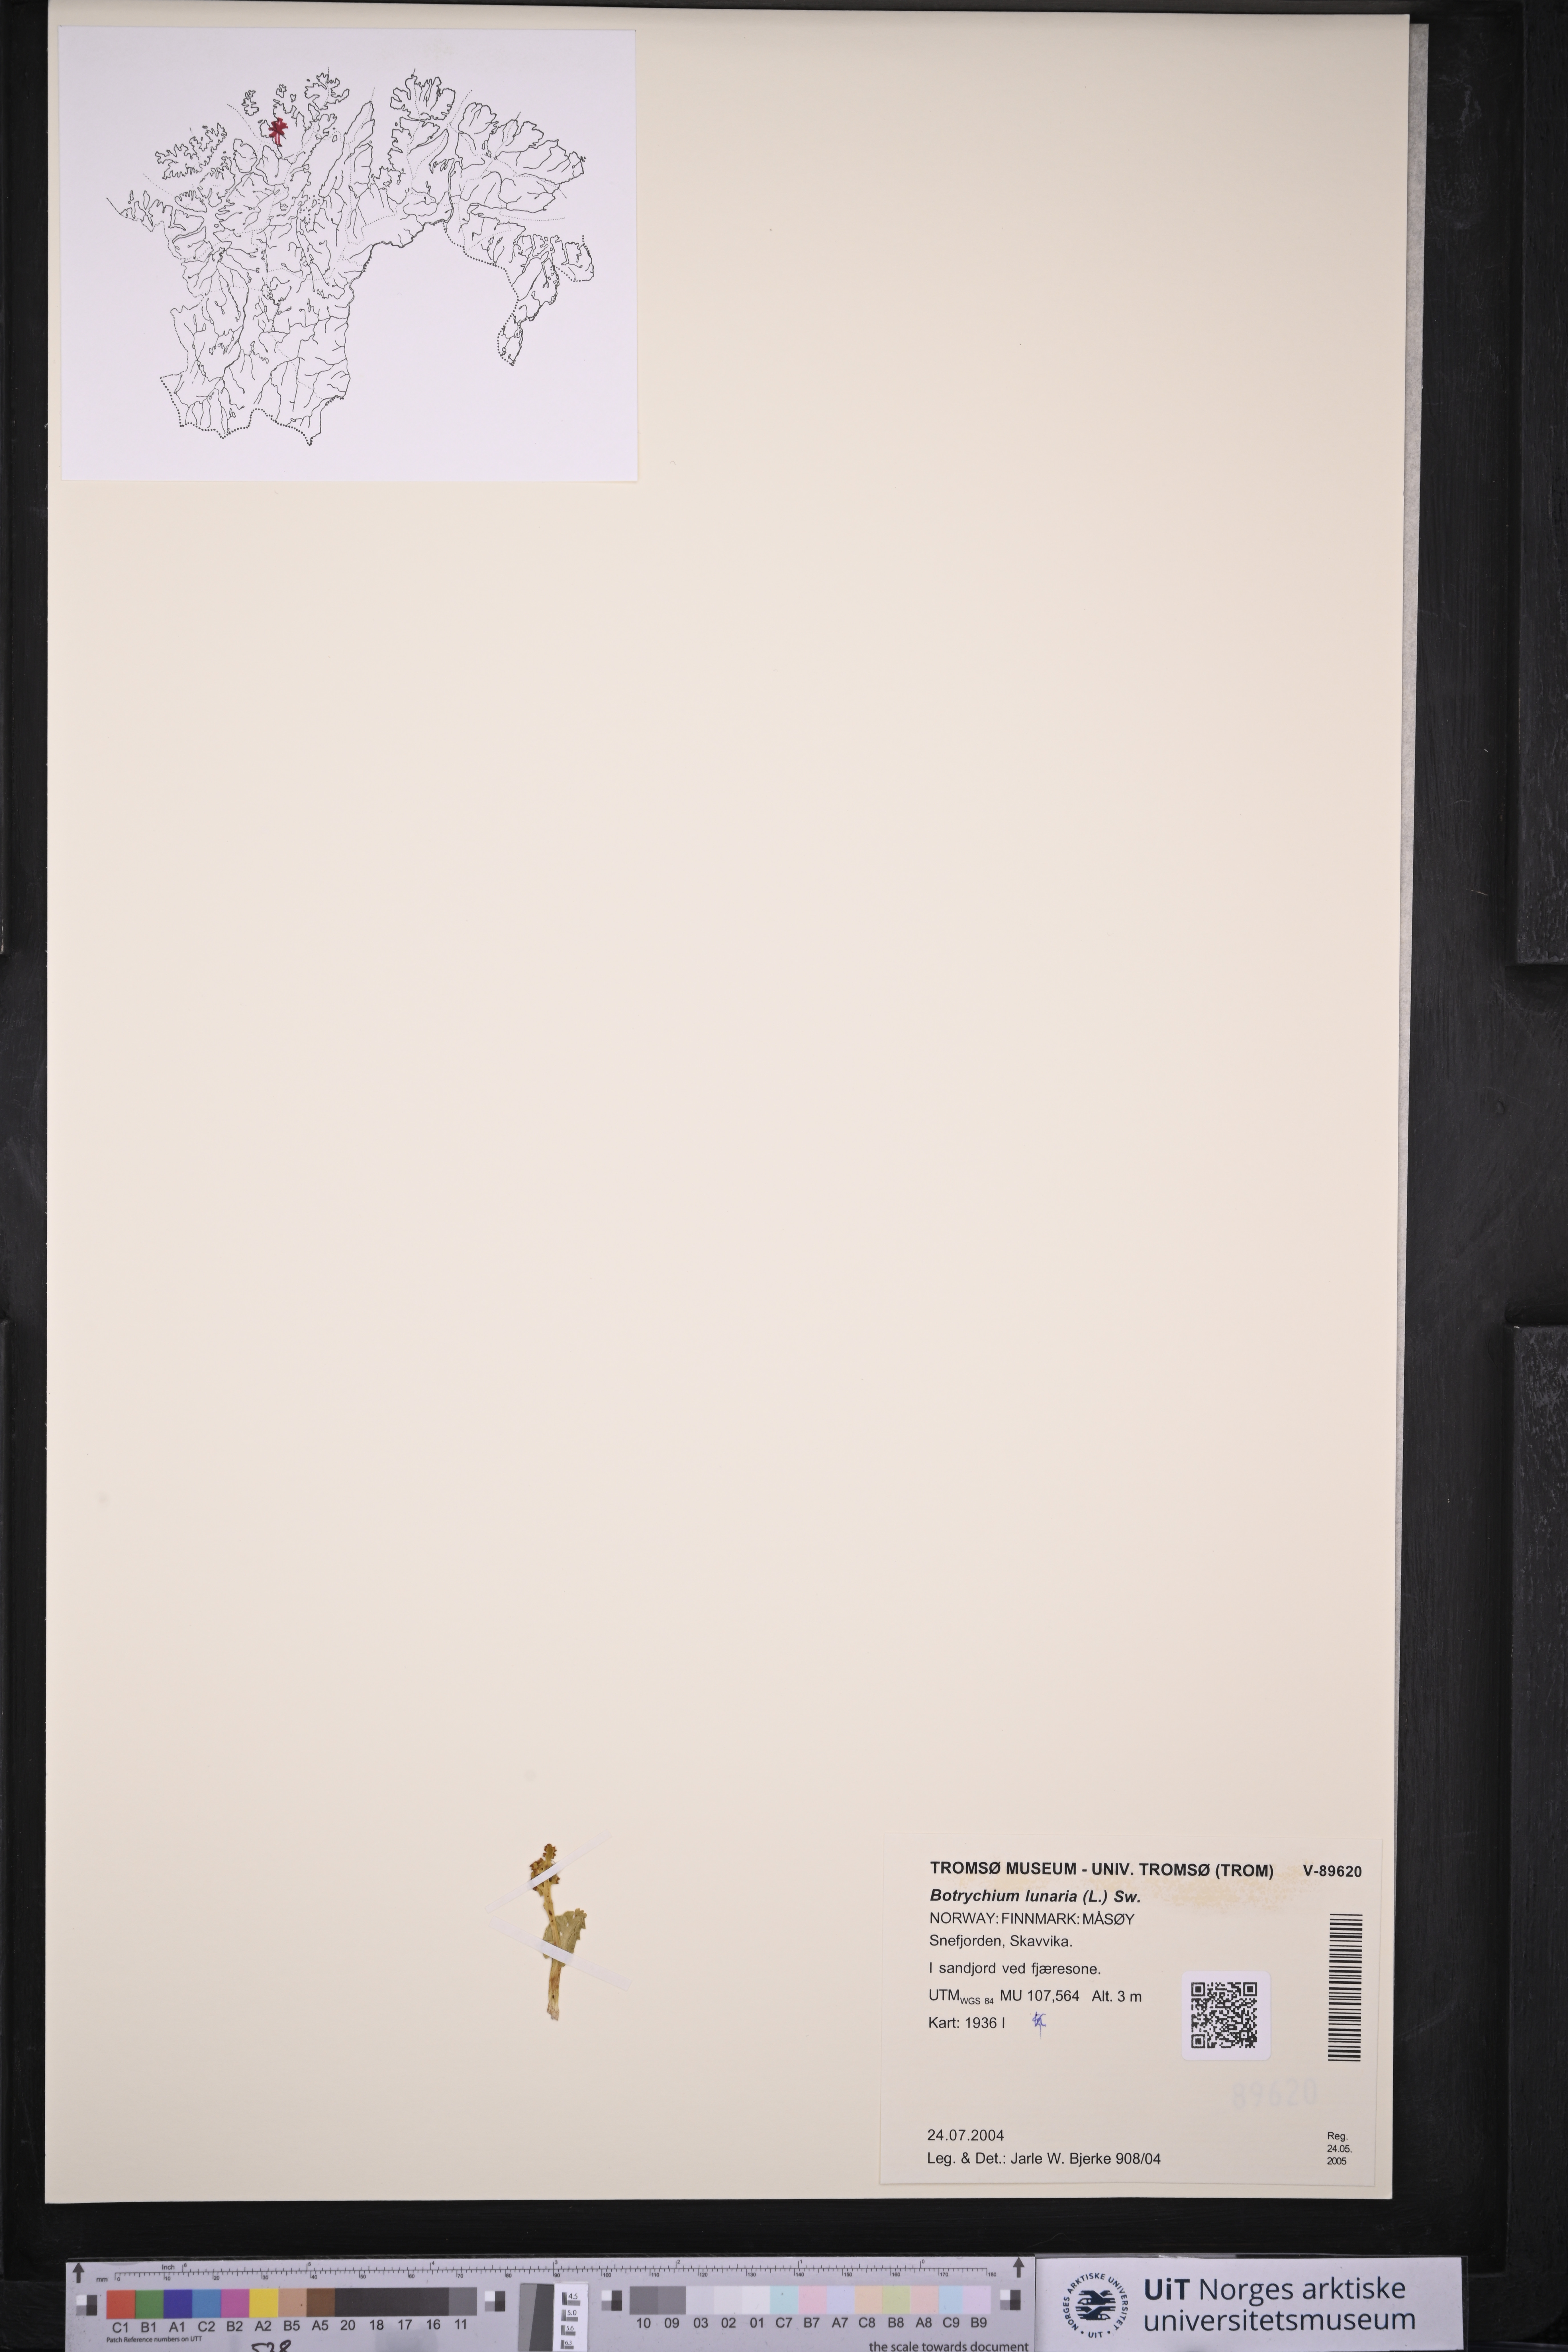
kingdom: Plantae
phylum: Tracheophyta
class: Polypodiopsida
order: Ophioglossales
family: Ophioglossaceae
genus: Botrychium
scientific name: Botrychium lunaria
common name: Moonwort
